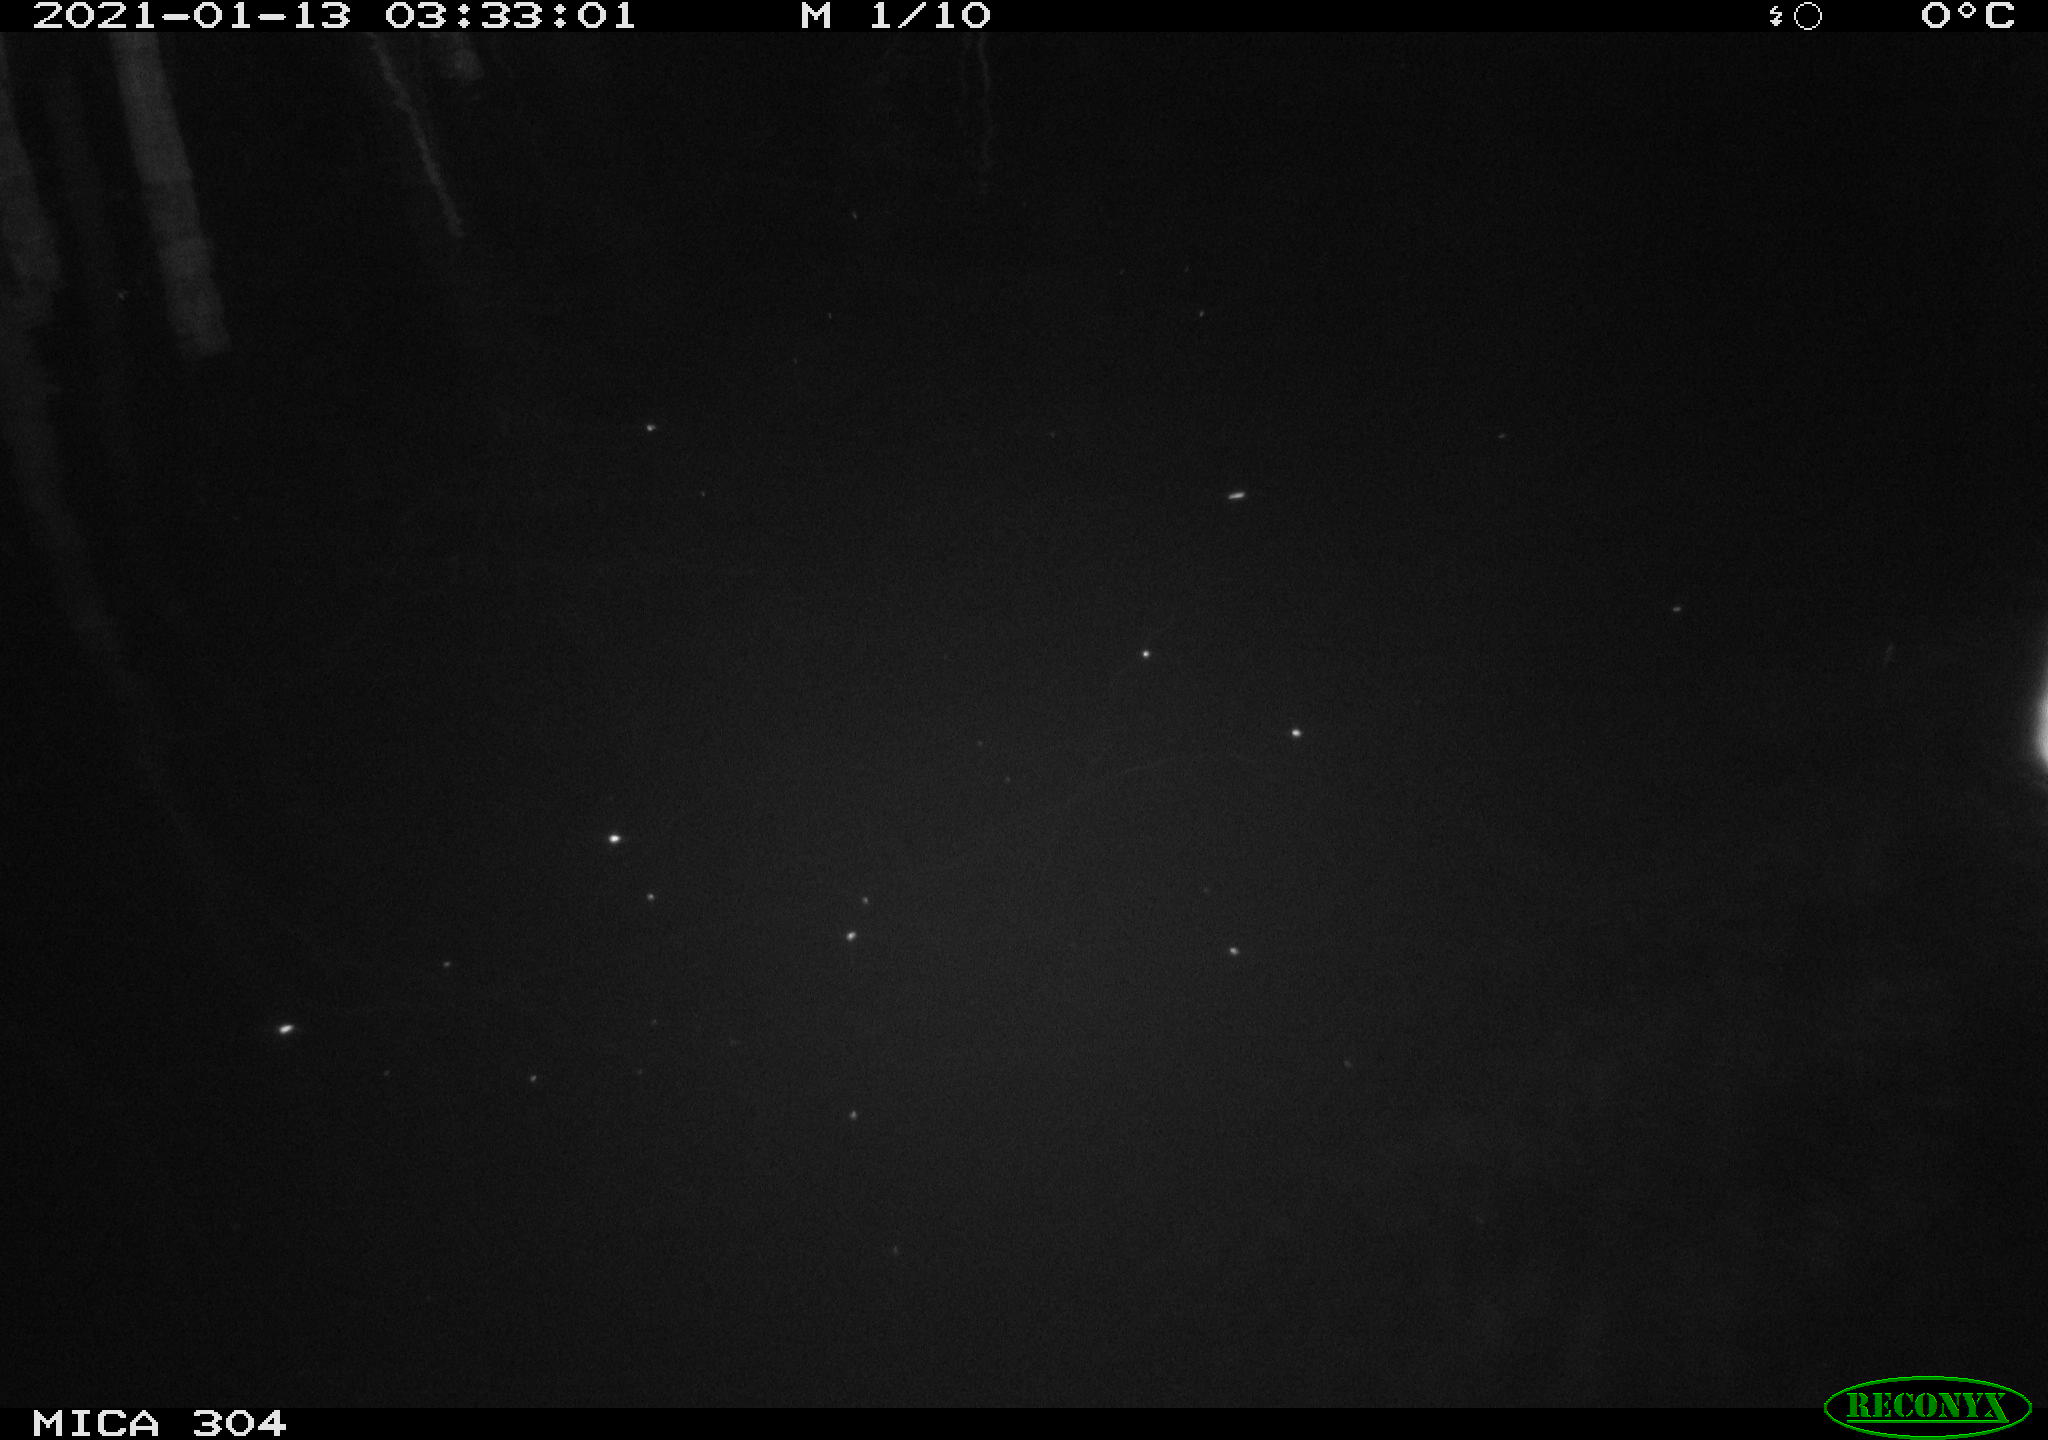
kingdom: Animalia
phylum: Chordata
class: Mammalia
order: Rodentia
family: Muridae
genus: Rattus
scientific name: Rattus norvegicus
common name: Brown rat
